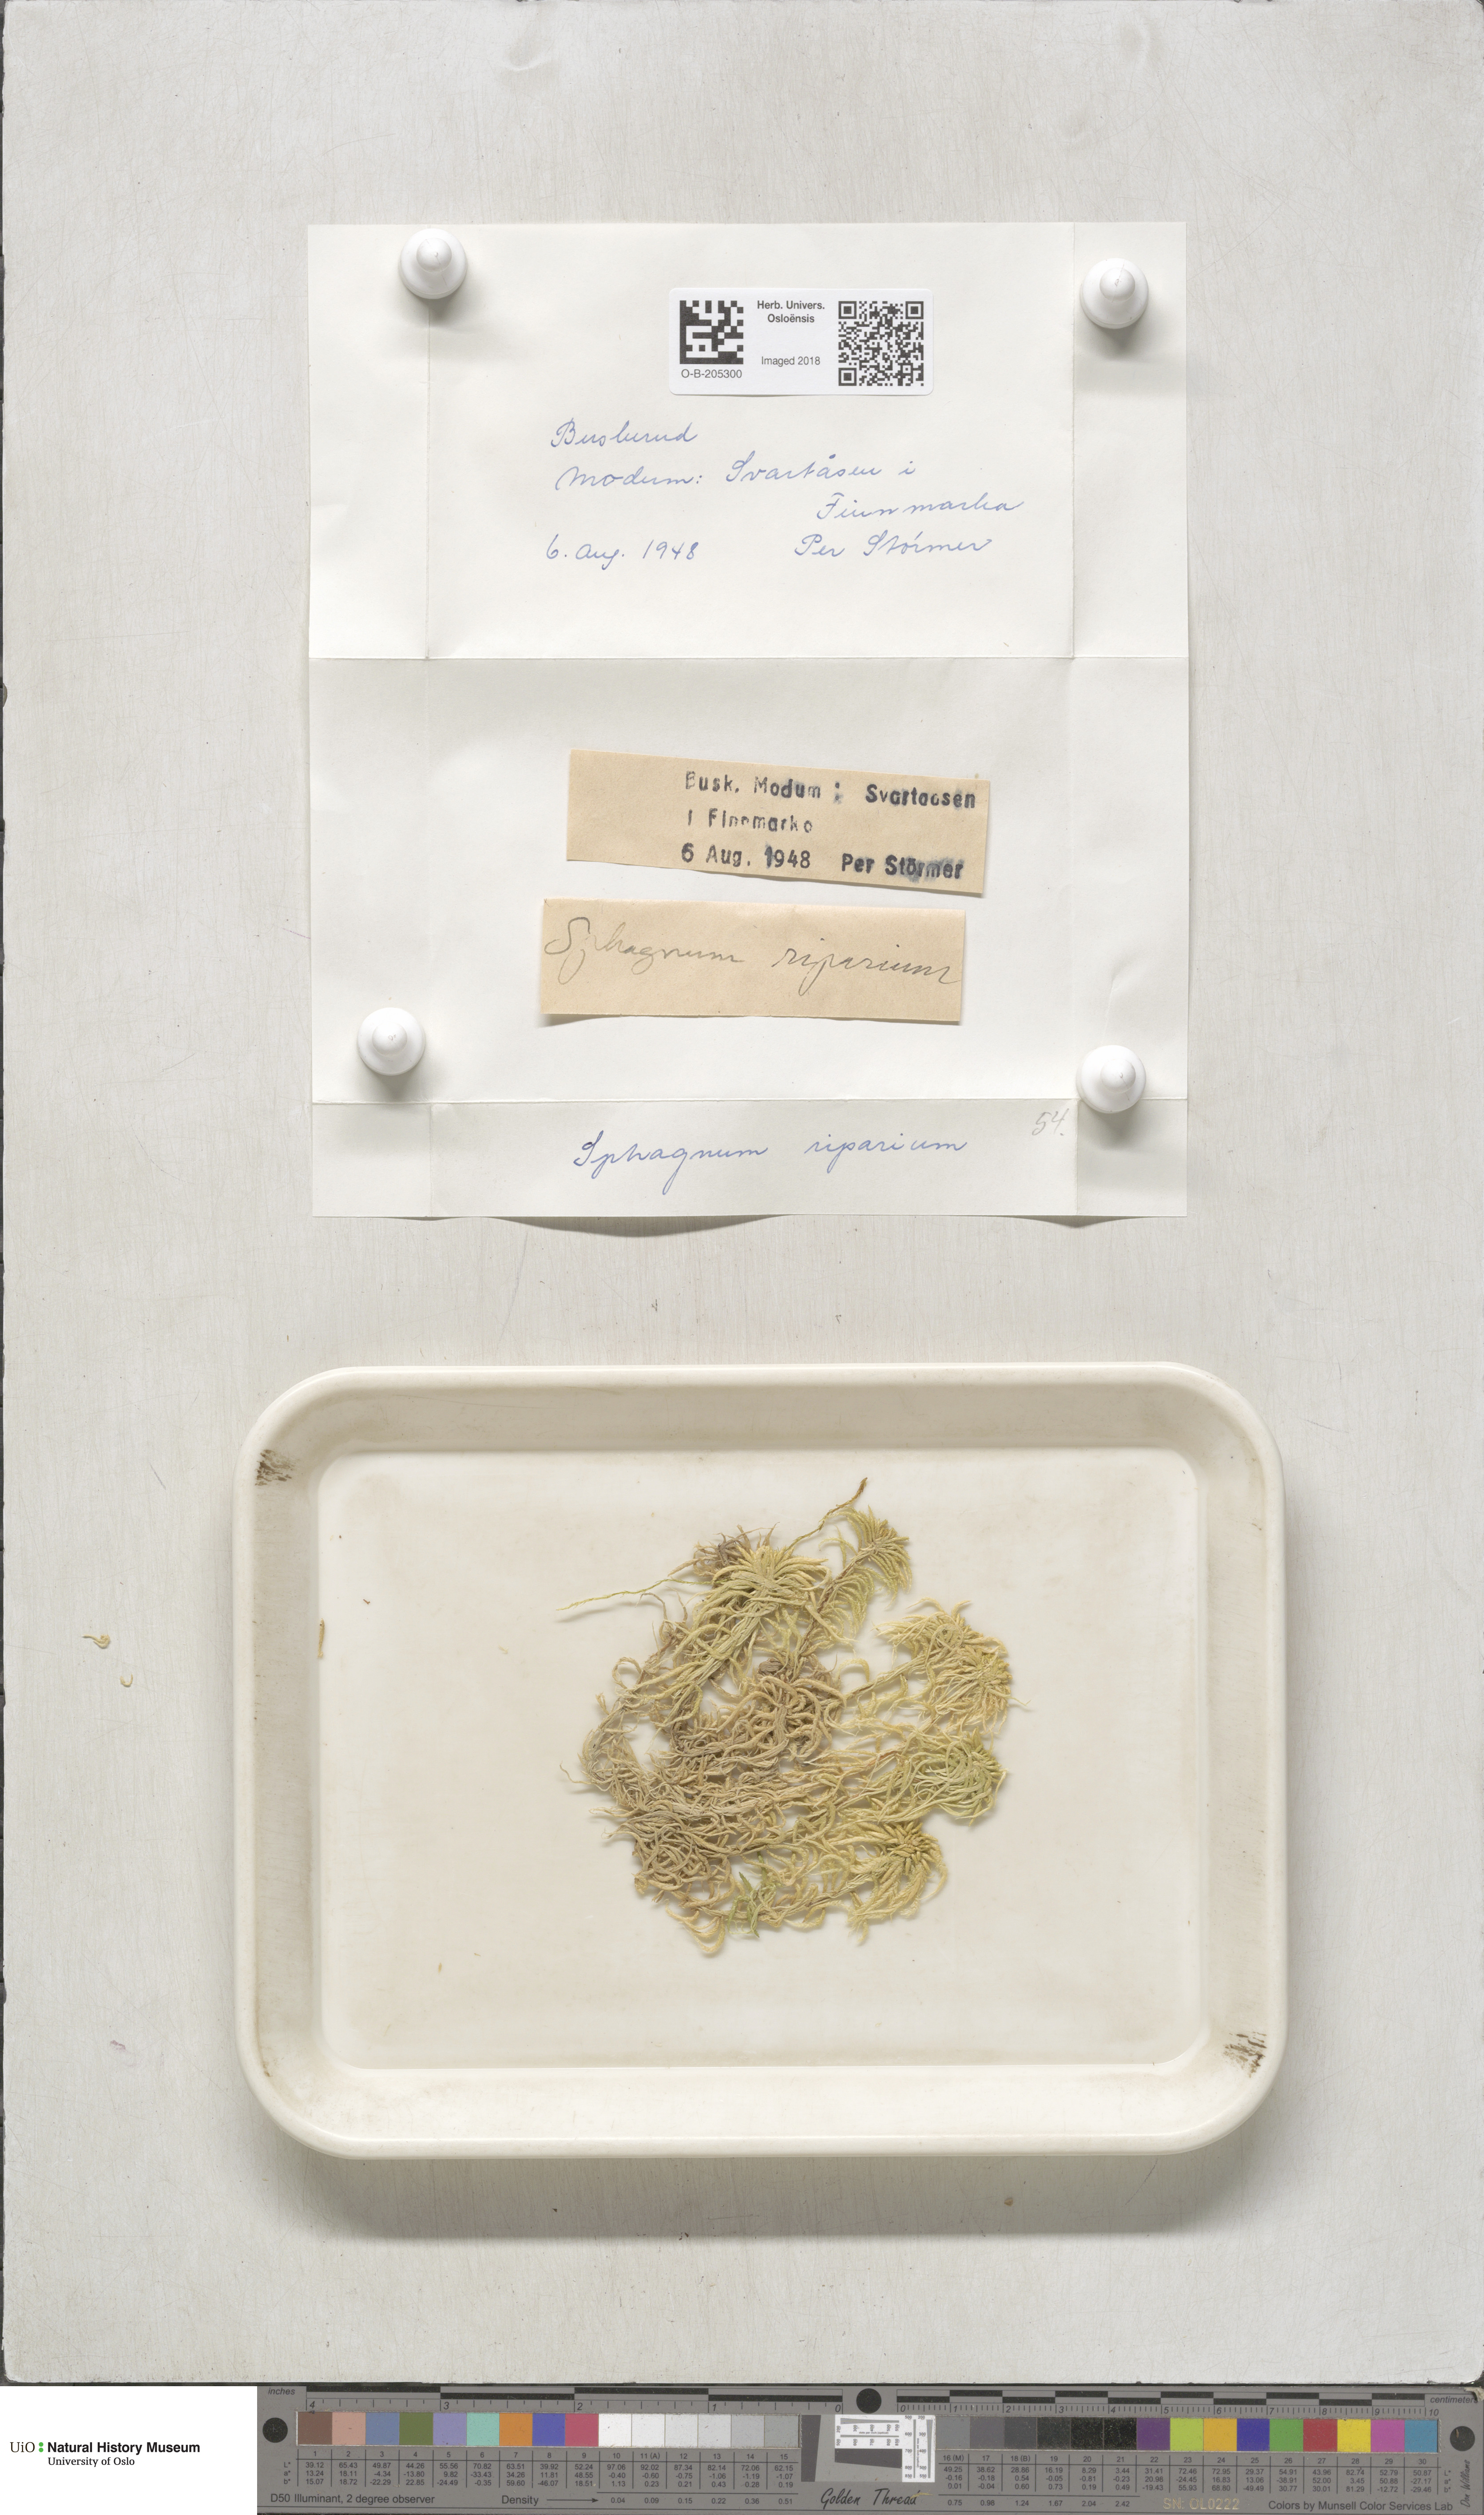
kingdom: Plantae
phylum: Bryophyta
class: Sphagnopsida
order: Sphagnales
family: Sphagnaceae
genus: Sphagnum
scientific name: Sphagnum riparium
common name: Streamside peat moss
